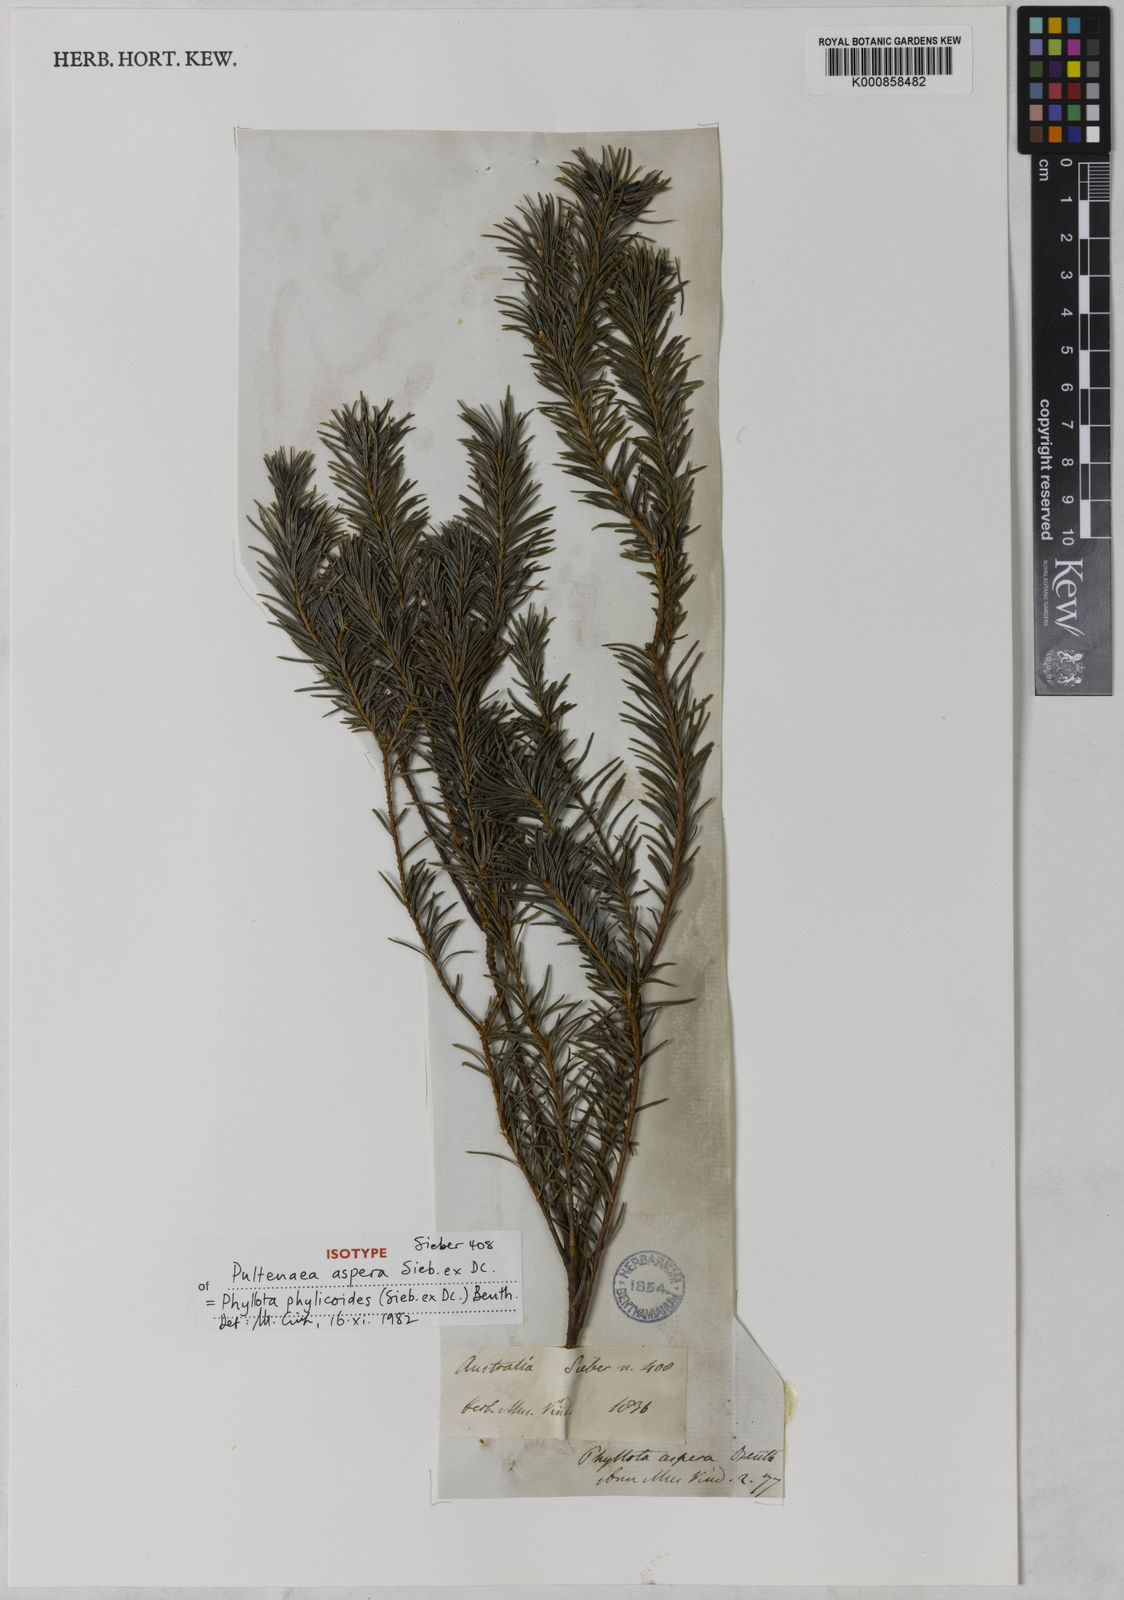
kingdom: Plantae
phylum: Tracheophyta
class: Magnoliopsida
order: Fabales
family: Fabaceae
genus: Phyllota
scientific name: Phyllota phylicoides
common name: Heath phyllota
